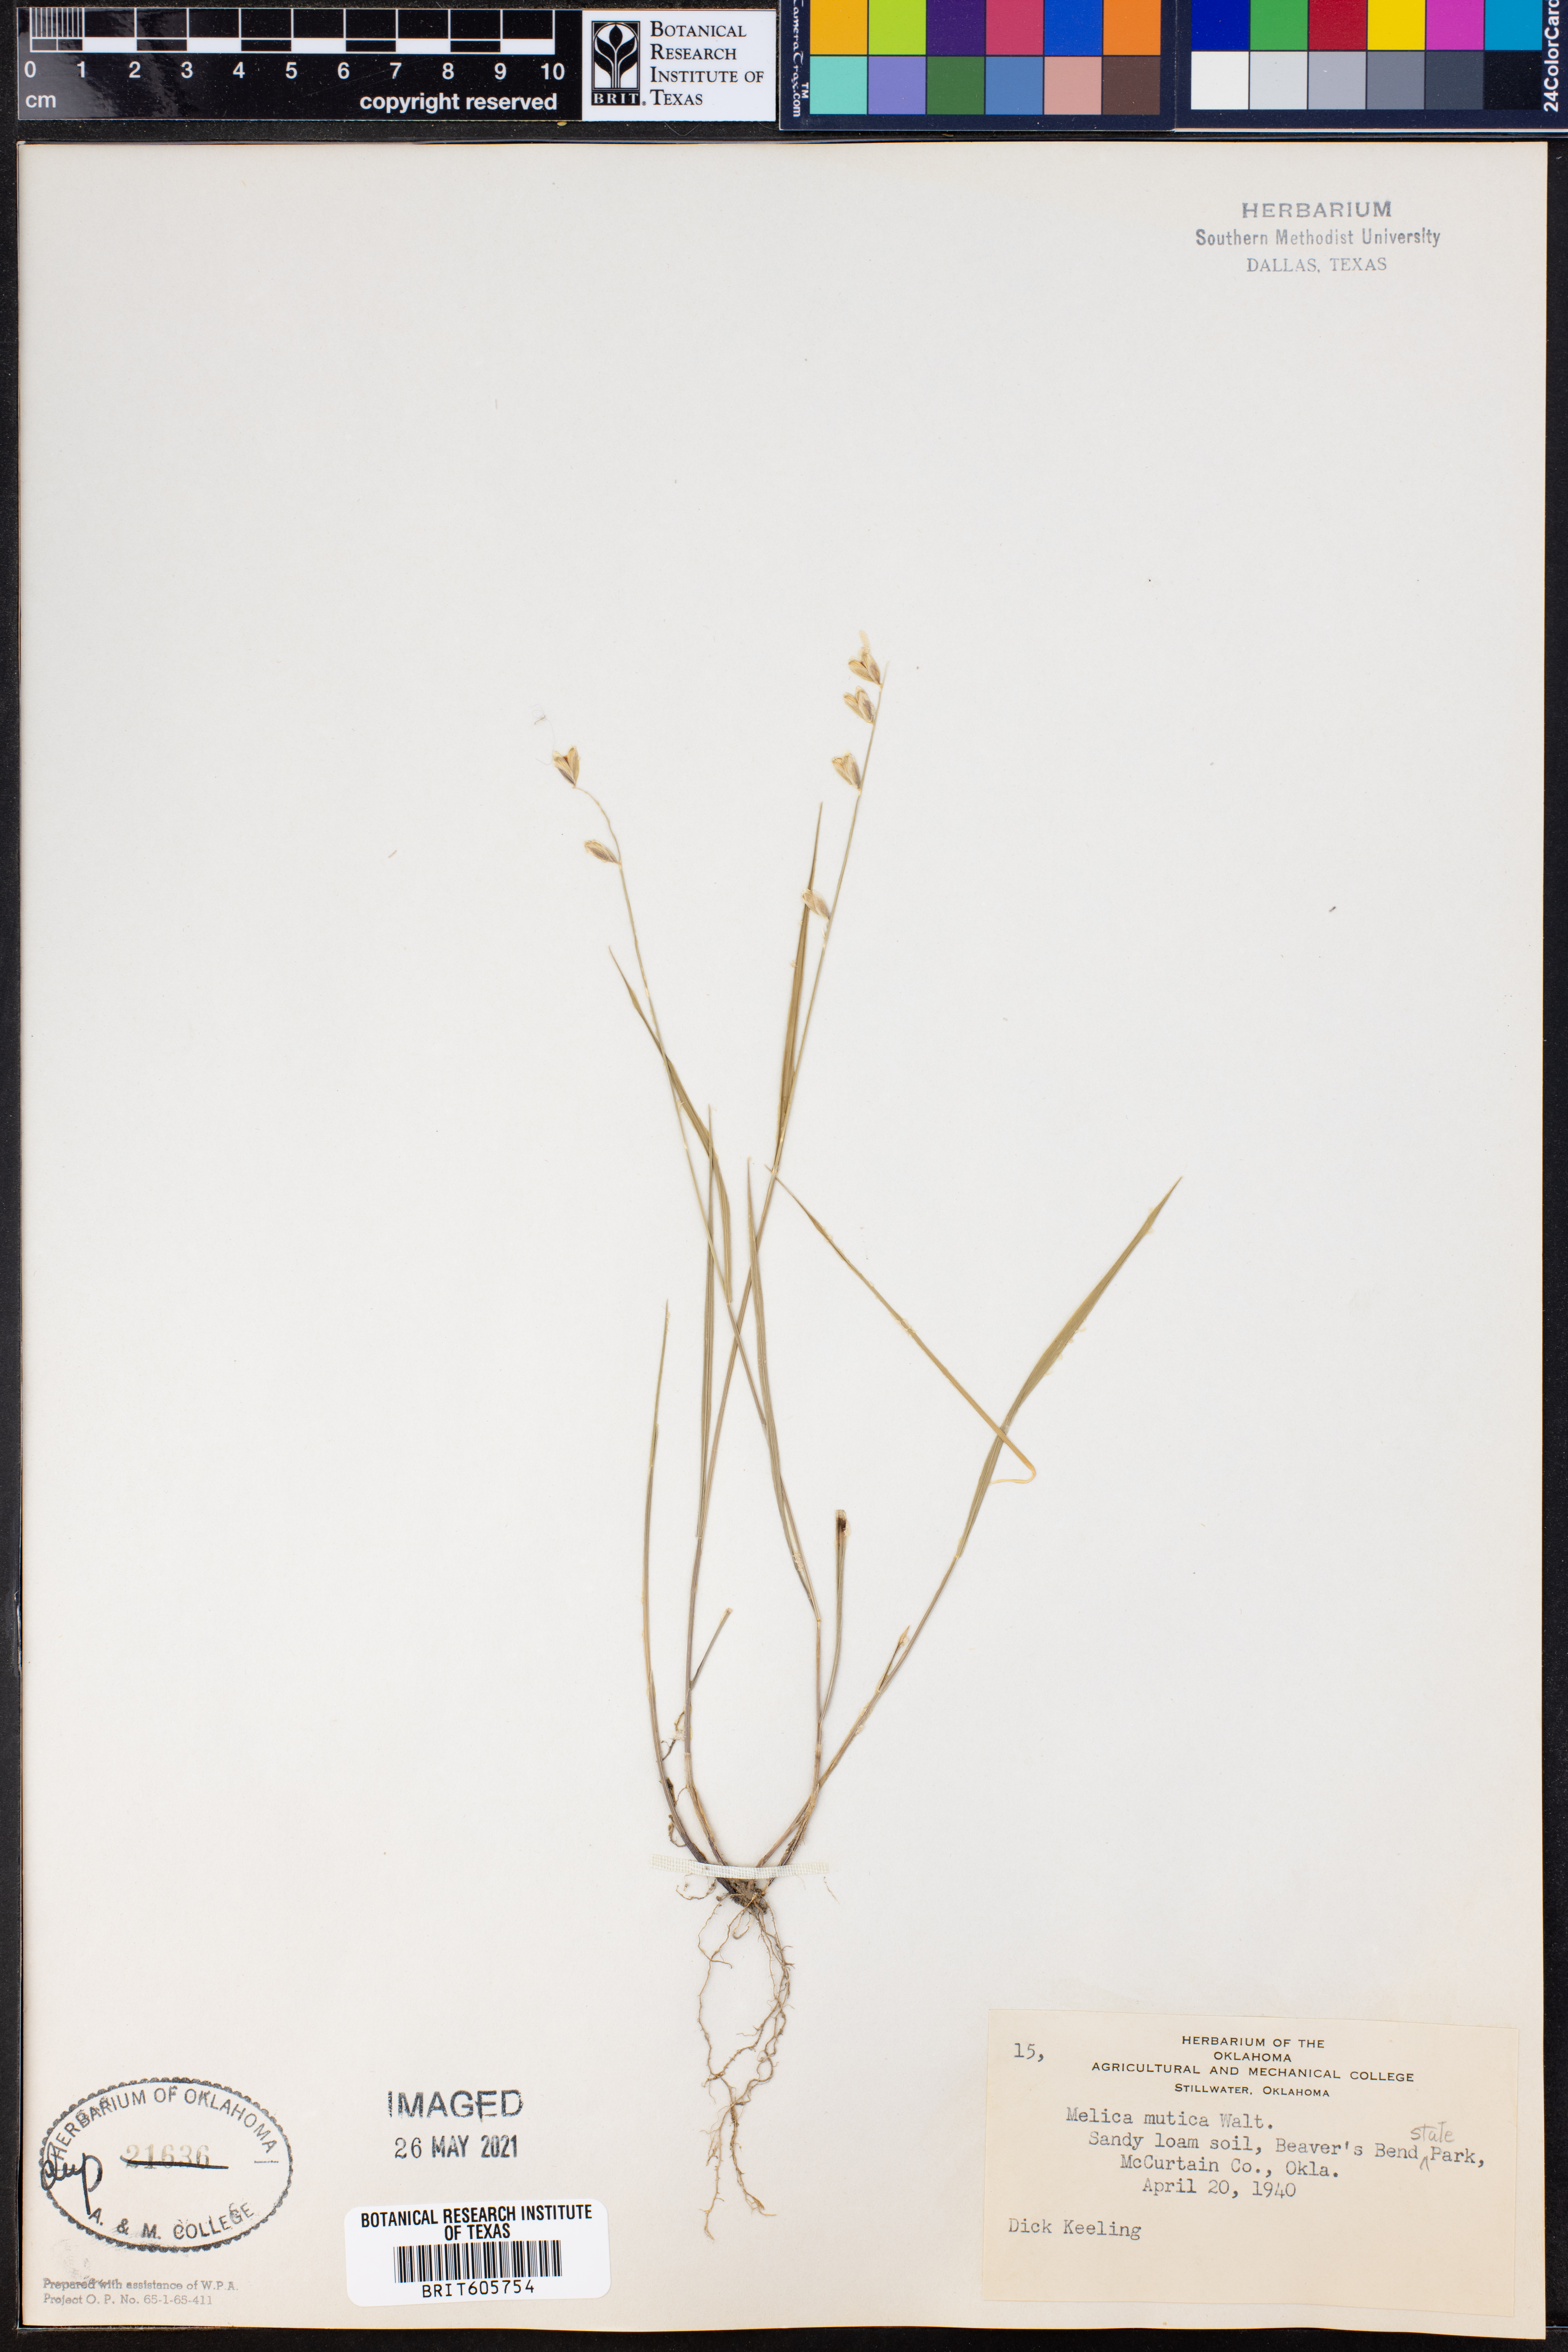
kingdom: Plantae
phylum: Tracheophyta
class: Liliopsida
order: Poales
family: Poaceae
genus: Melica
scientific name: Melica mutica
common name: Two-flower melic
